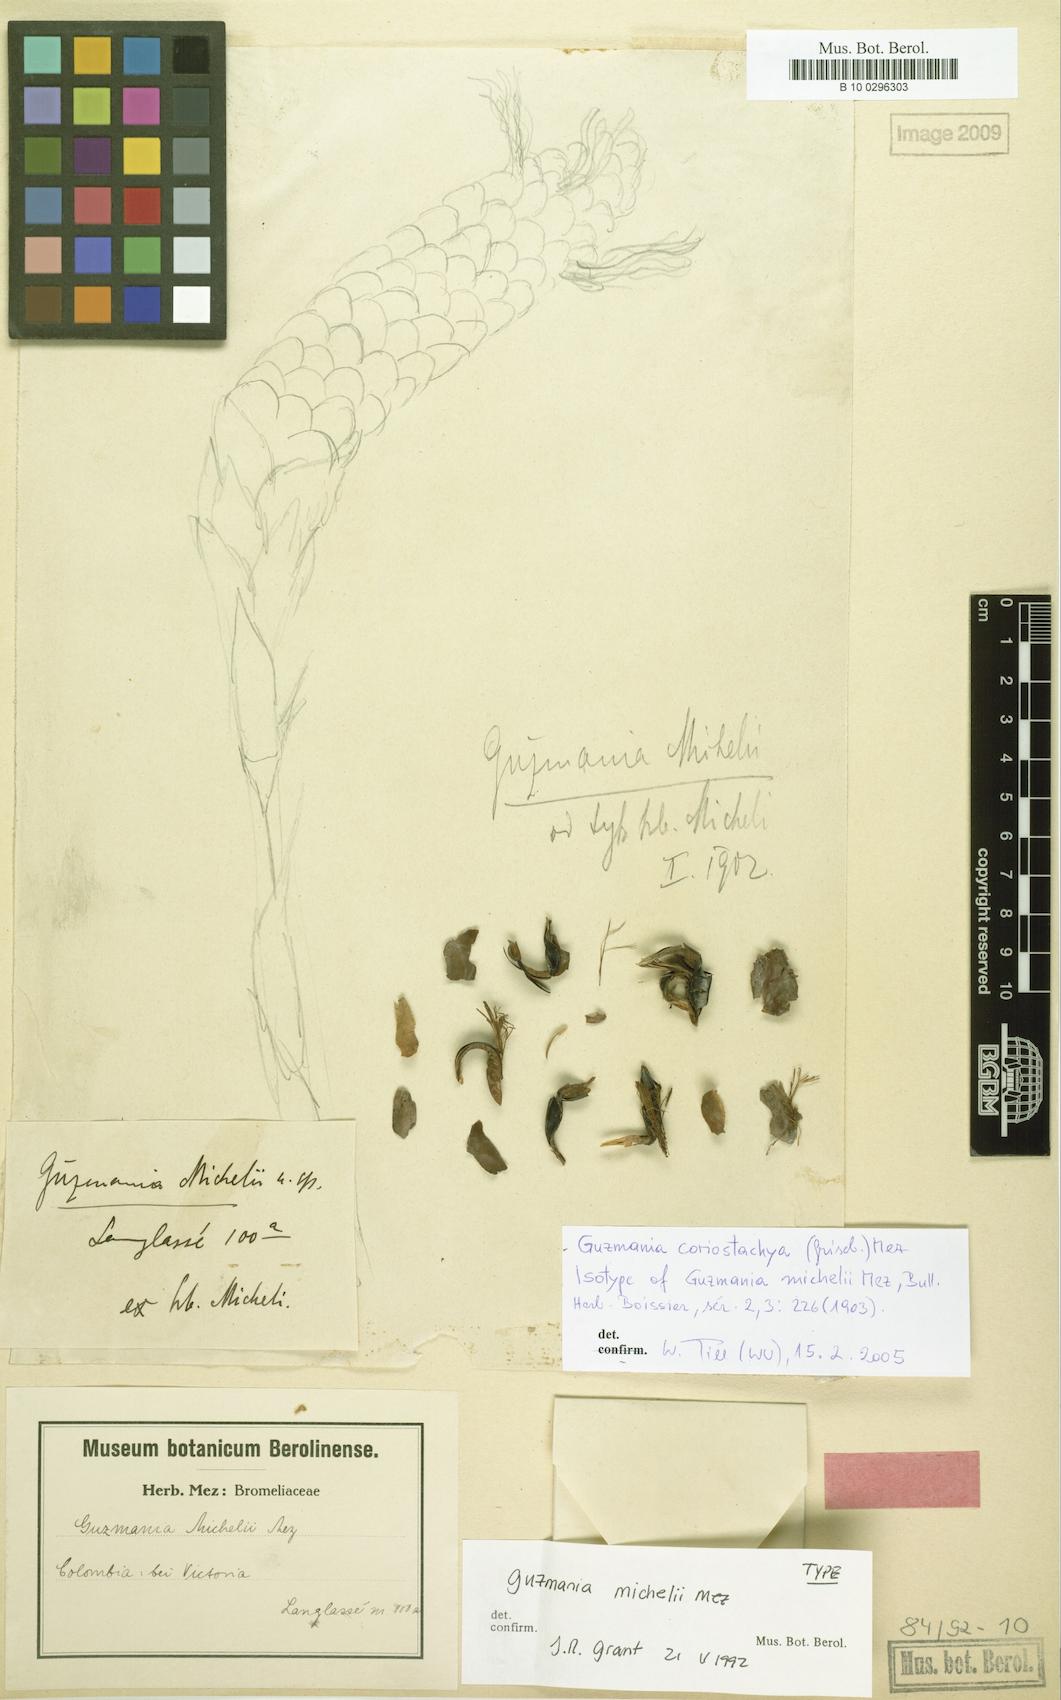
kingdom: Plantae
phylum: Tracheophyta
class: Liliopsida
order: Poales
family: Bromeliaceae
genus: Guzmania
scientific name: Guzmania coriostachya
